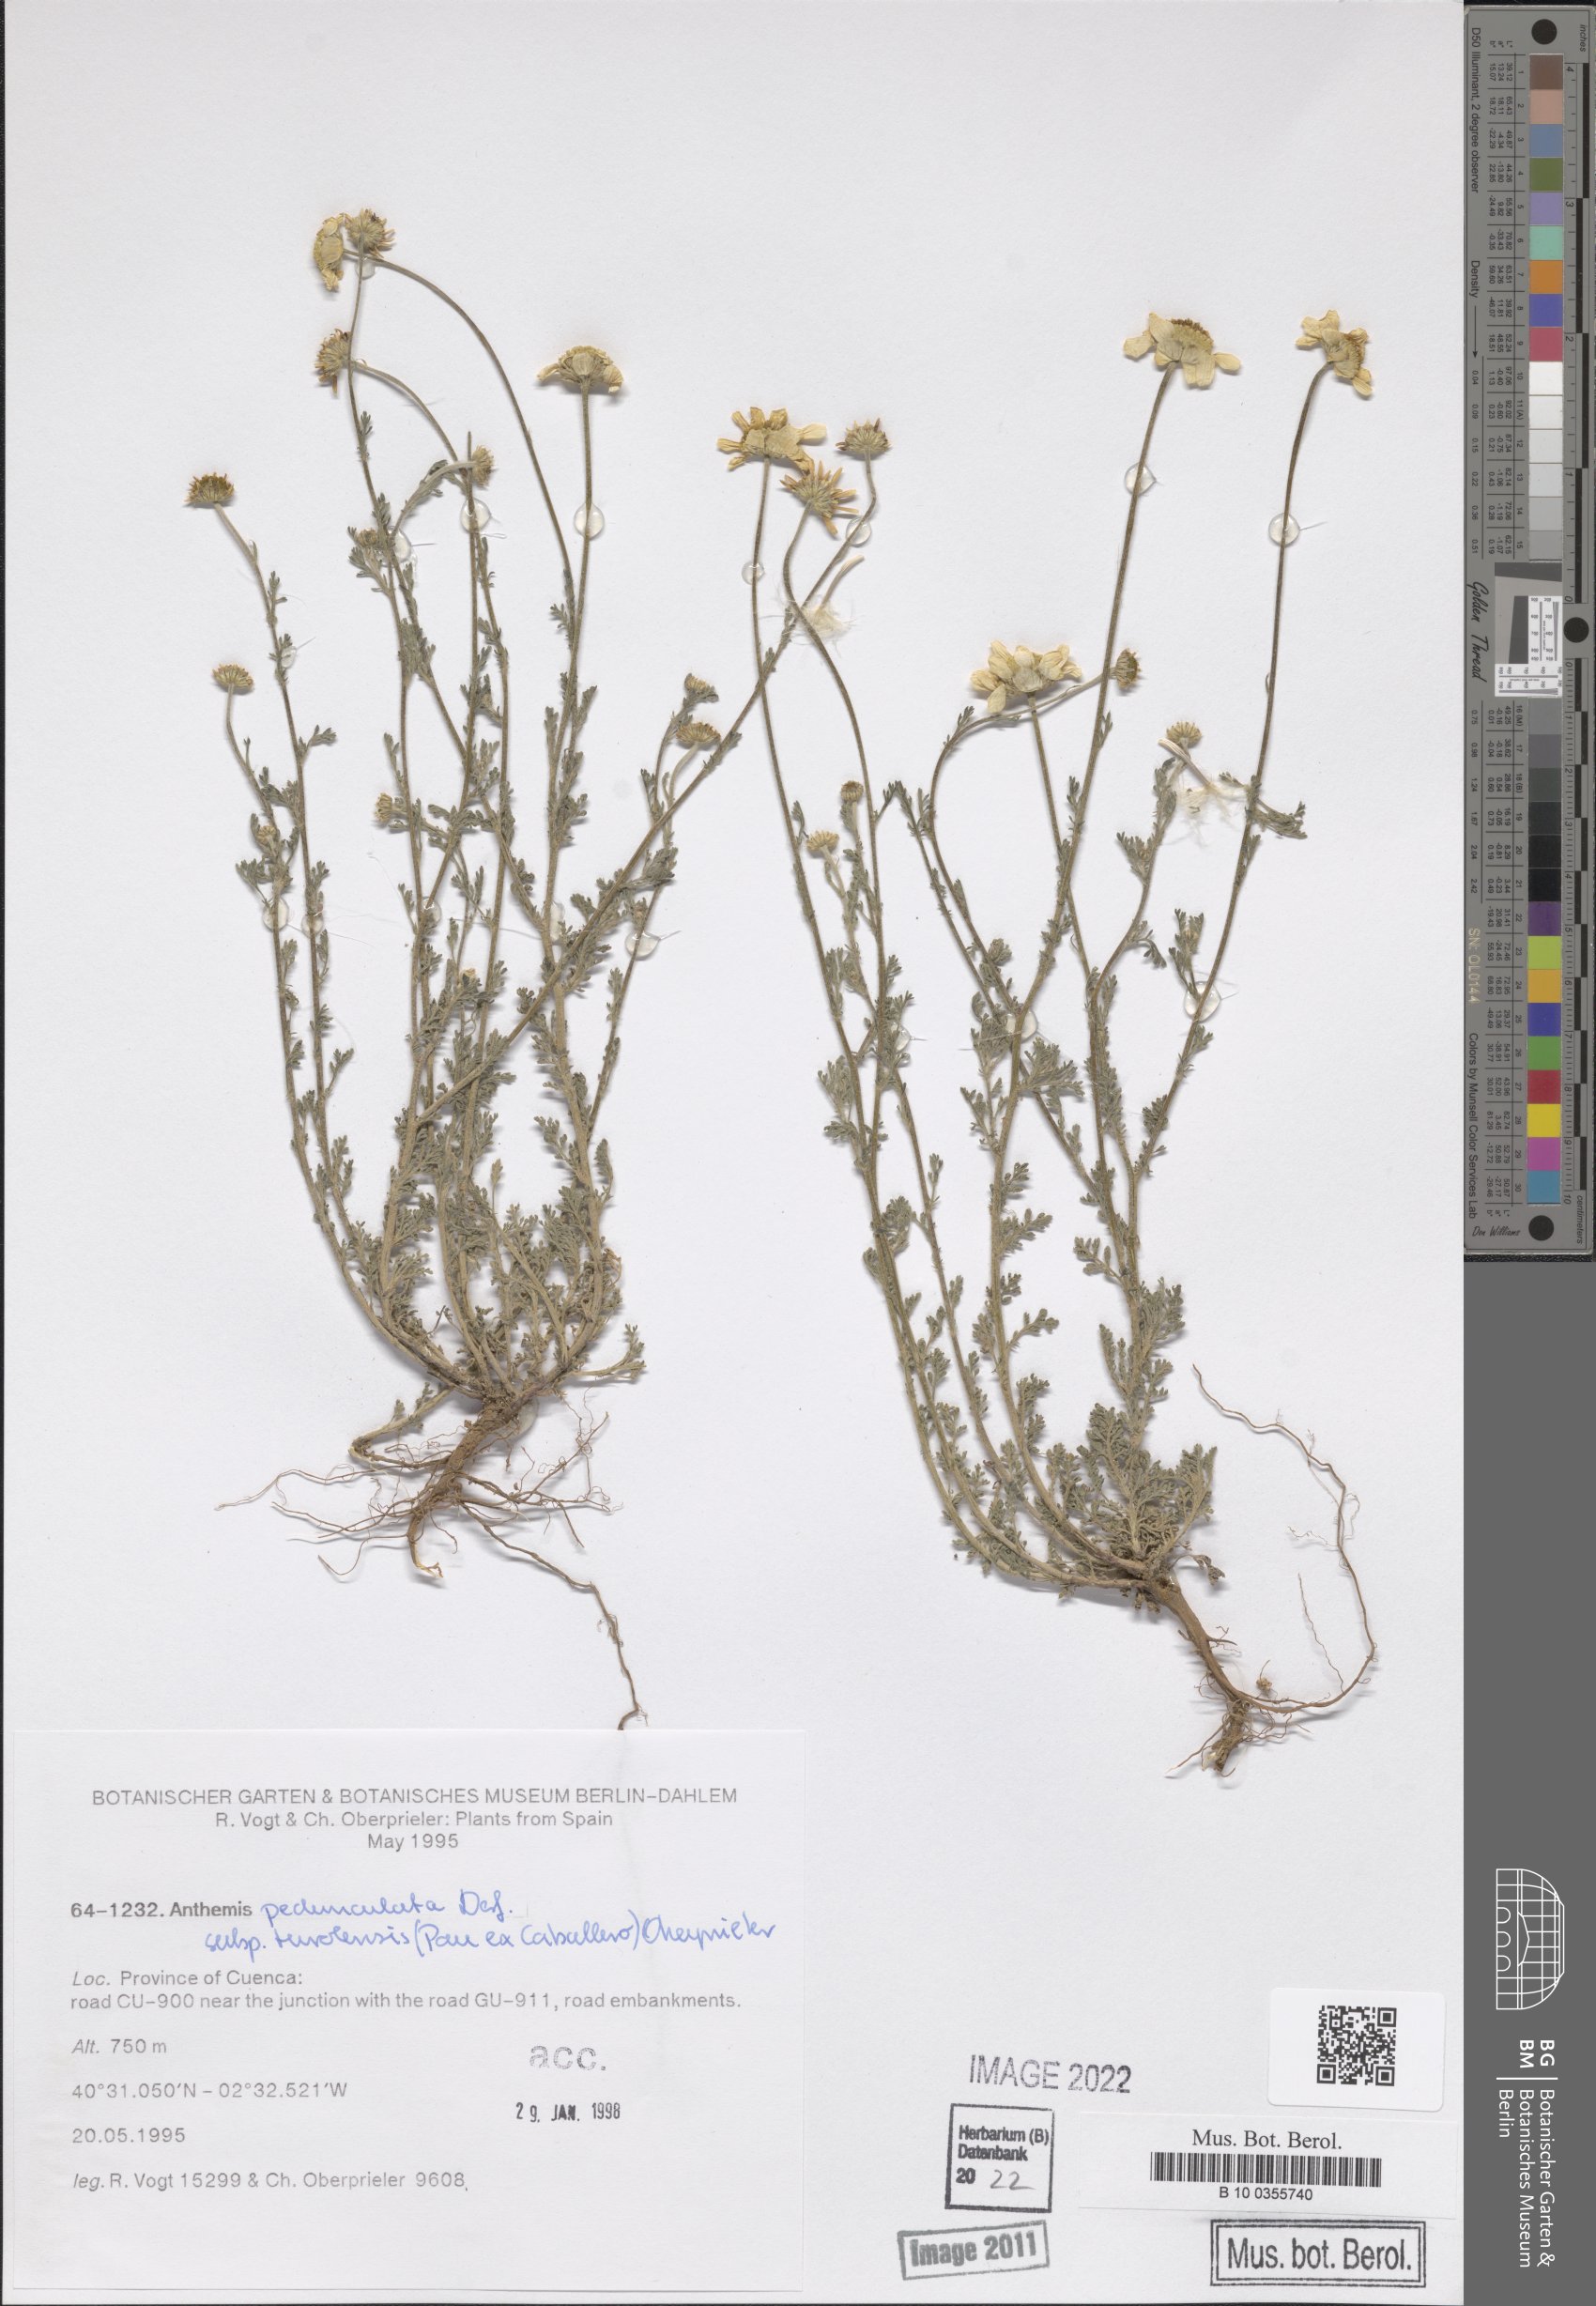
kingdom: Plantae
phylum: Tracheophyta
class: Magnoliopsida
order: Asterales
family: Asteraceae
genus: Anthemis
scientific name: Anthemis pedunculata
